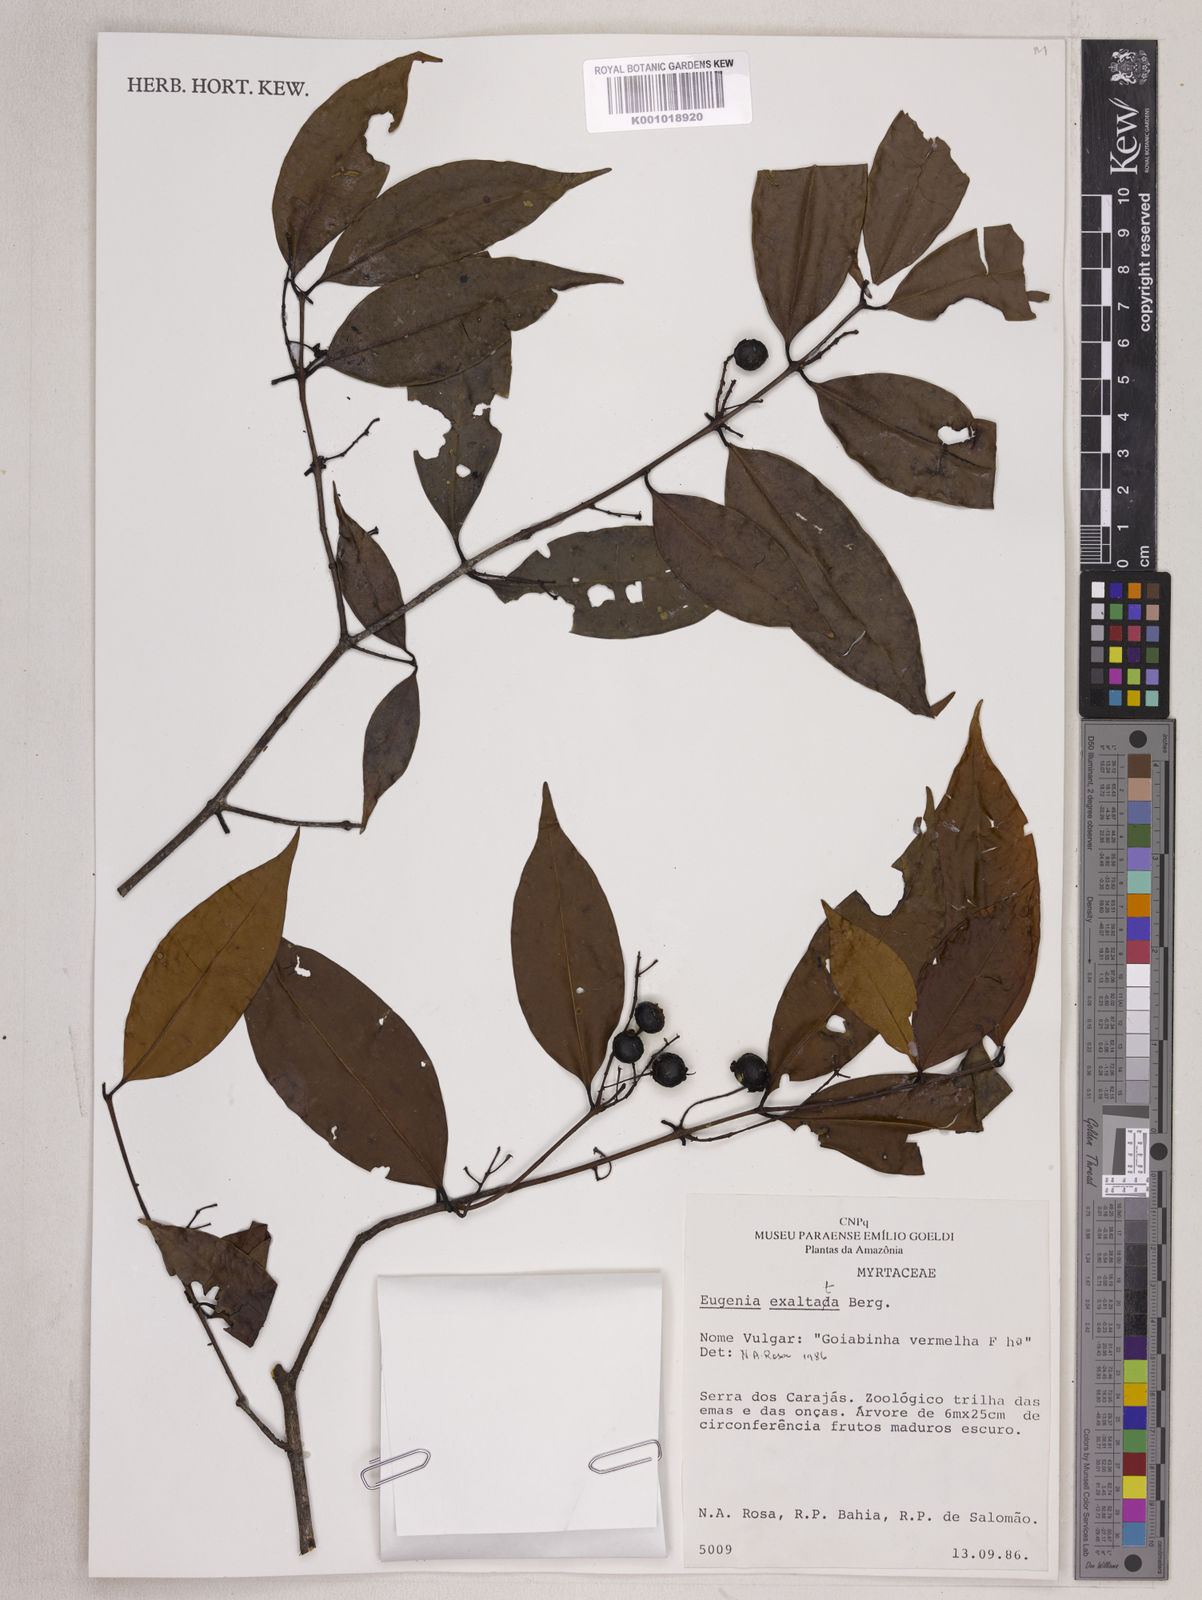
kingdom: Plantae
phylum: Tracheophyta
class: Magnoliopsida
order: Myrtales
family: Myrtaceae
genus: Eugenia
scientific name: Eugenia exaltata
